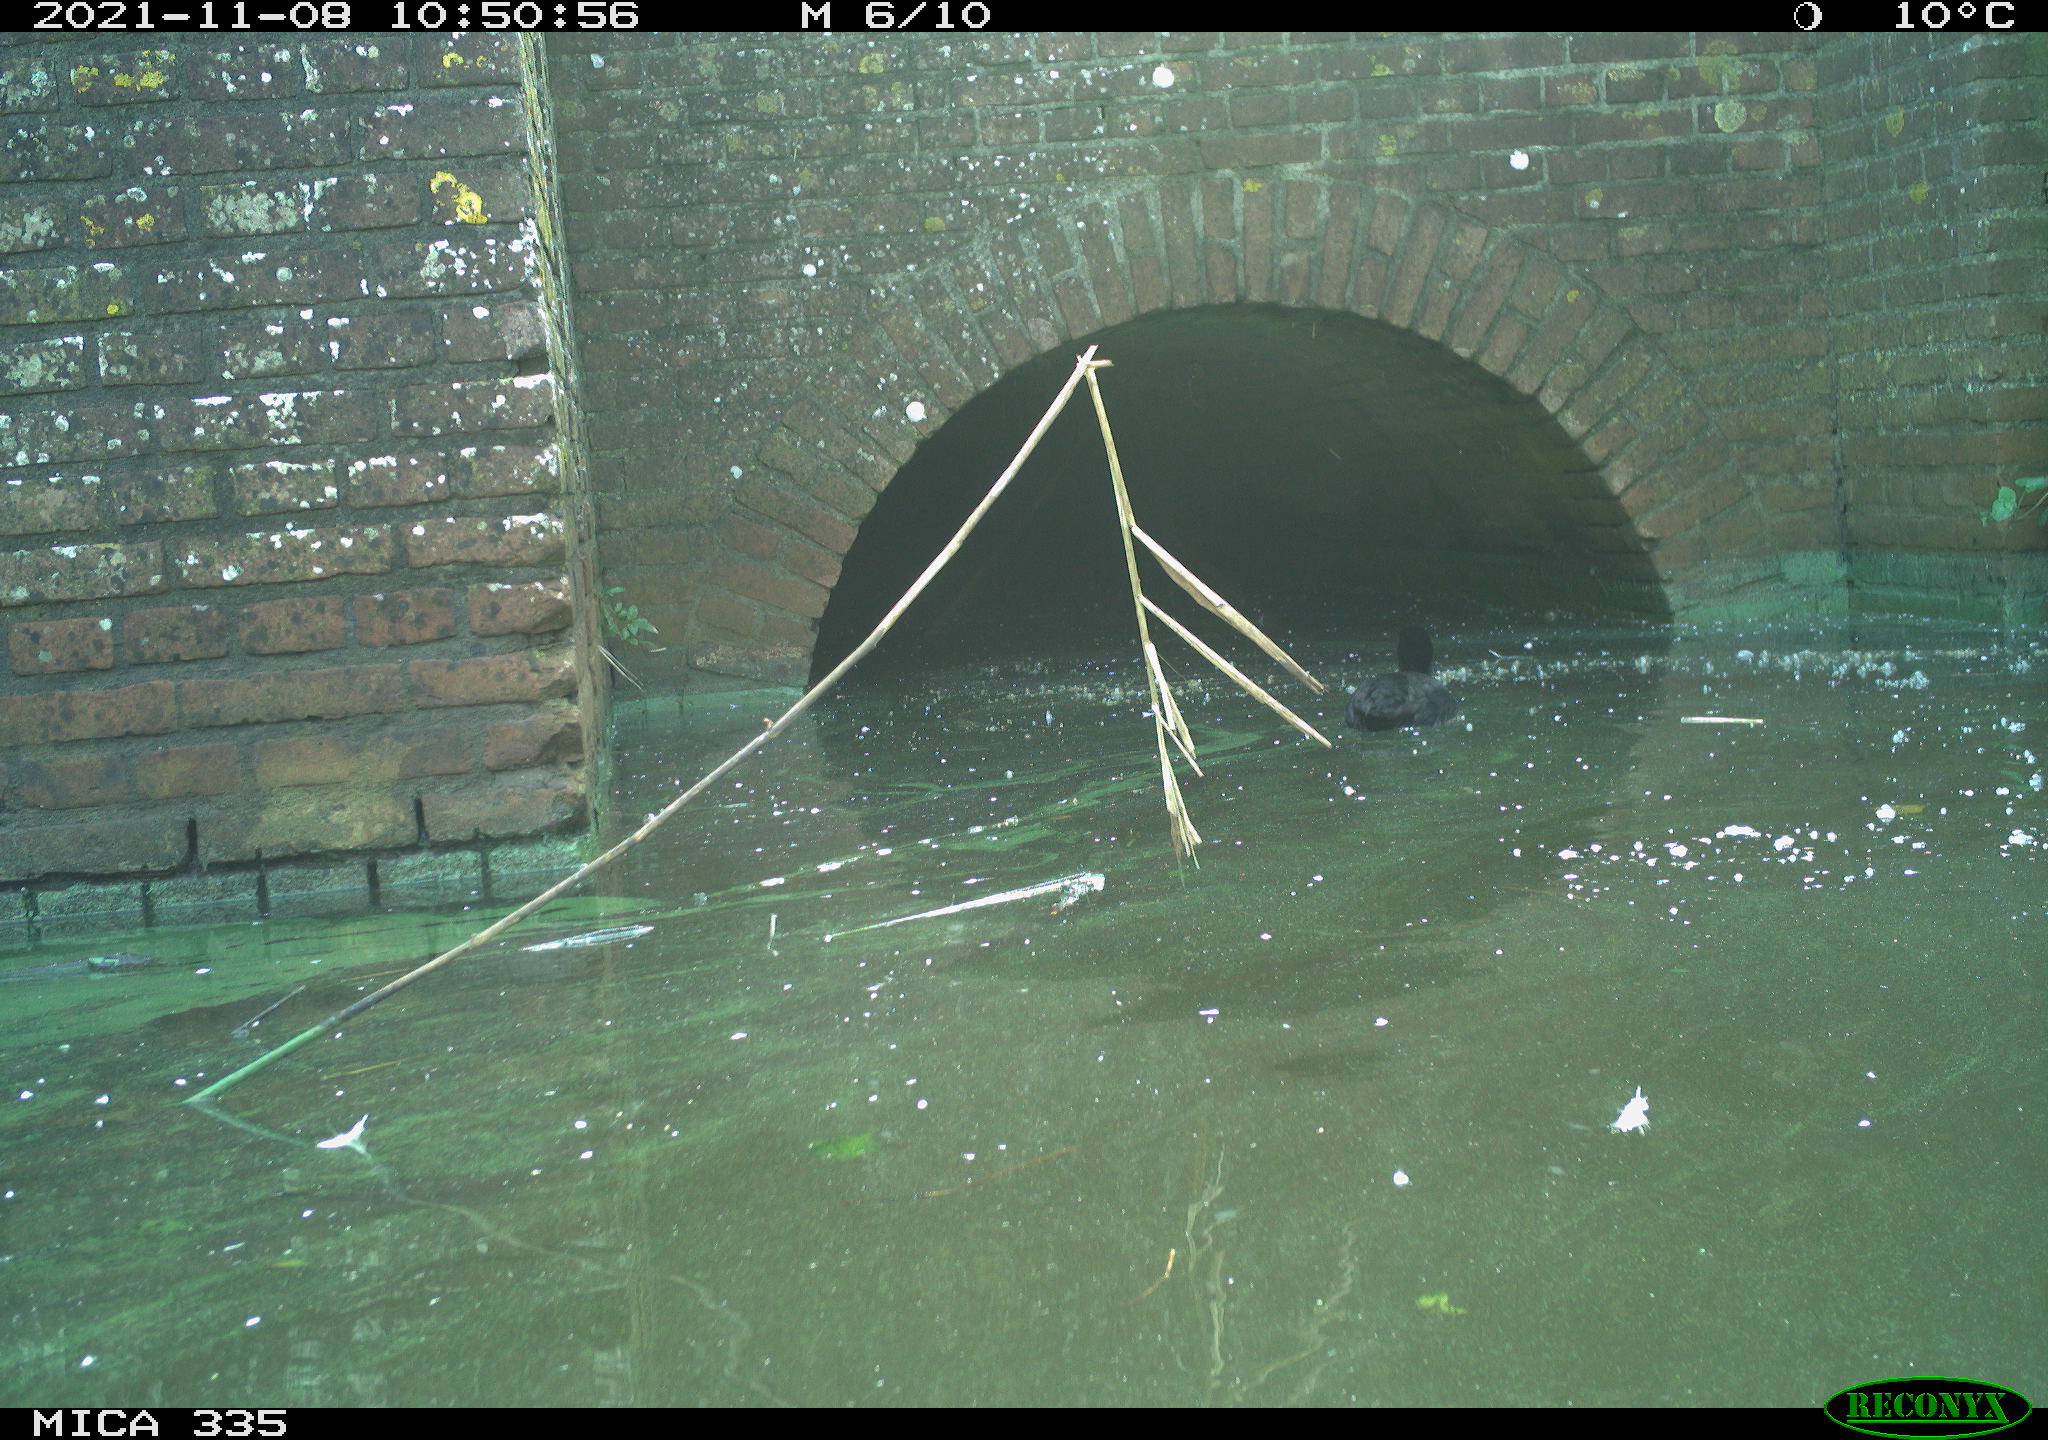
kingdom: Animalia
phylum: Chordata
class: Aves
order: Gruiformes
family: Rallidae
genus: Fulica
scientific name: Fulica atra
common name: Eurasian coot
